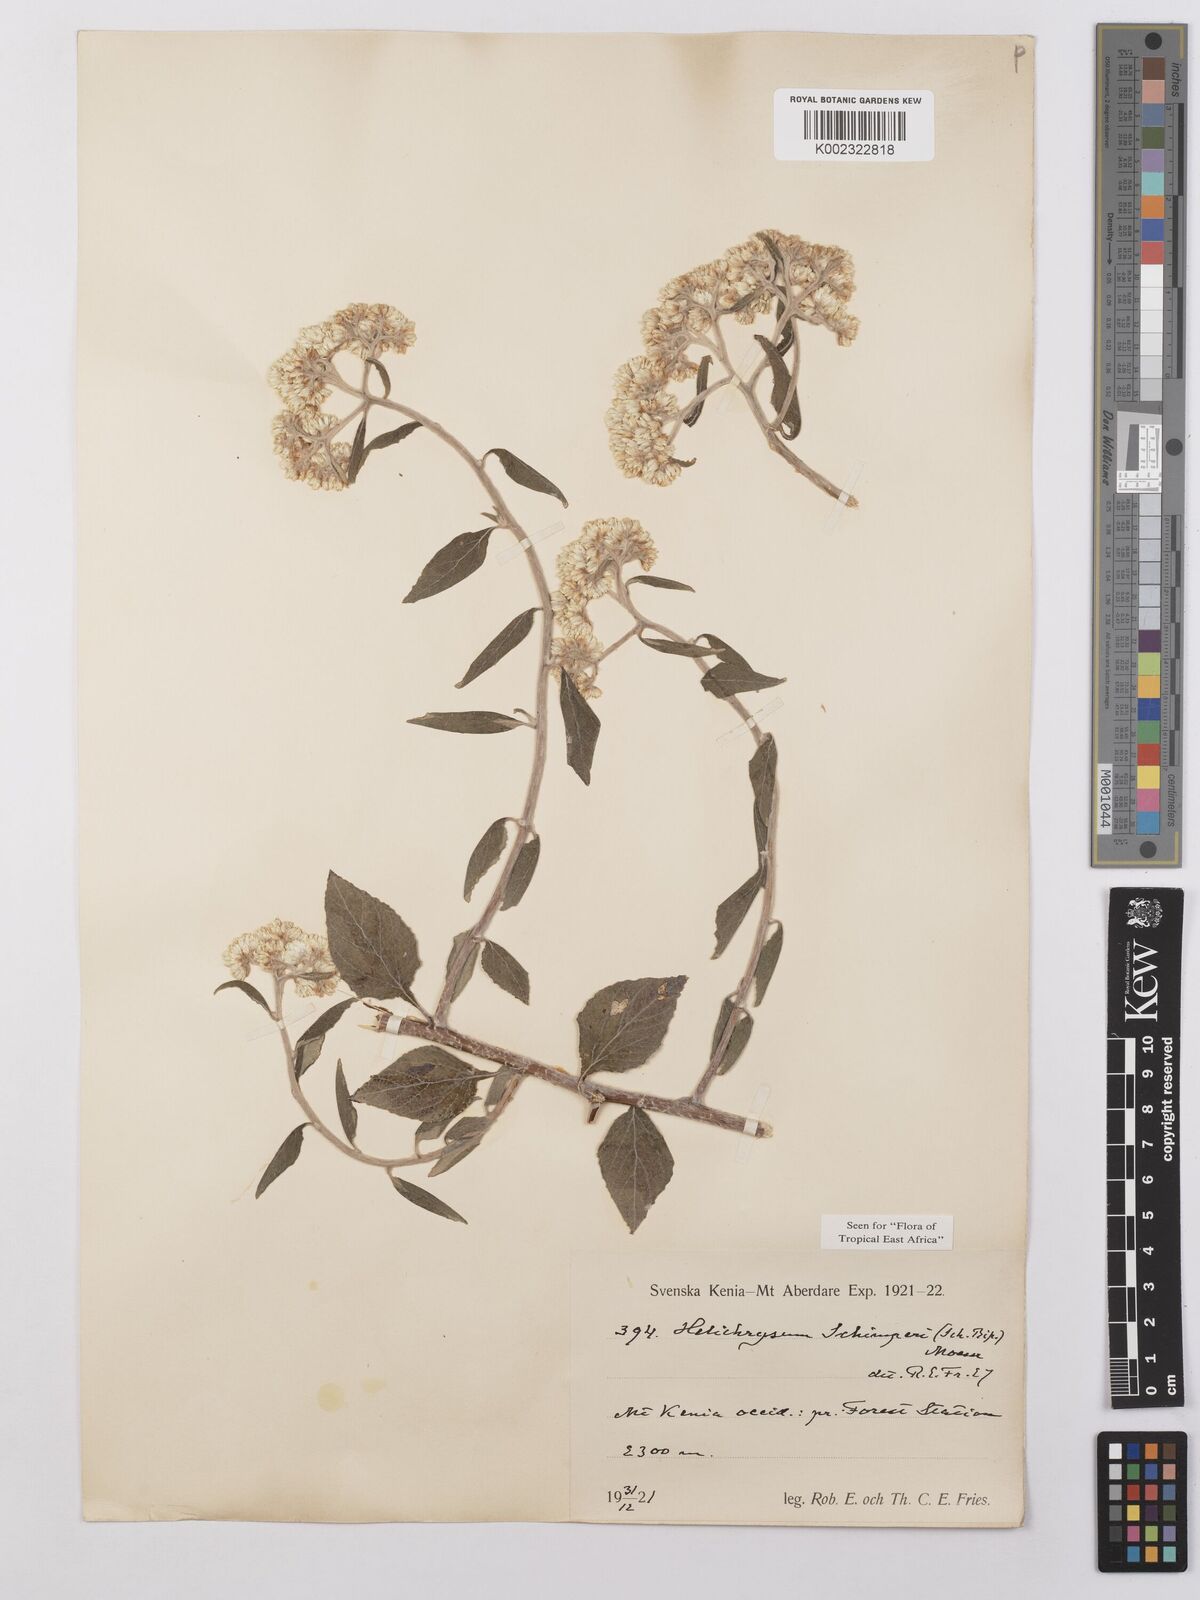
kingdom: Plantae
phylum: Tracheophyta
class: Magnoliopsida
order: Asterales
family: Asteraceae
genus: Helichrysum
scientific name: Helichrysum schimperi
